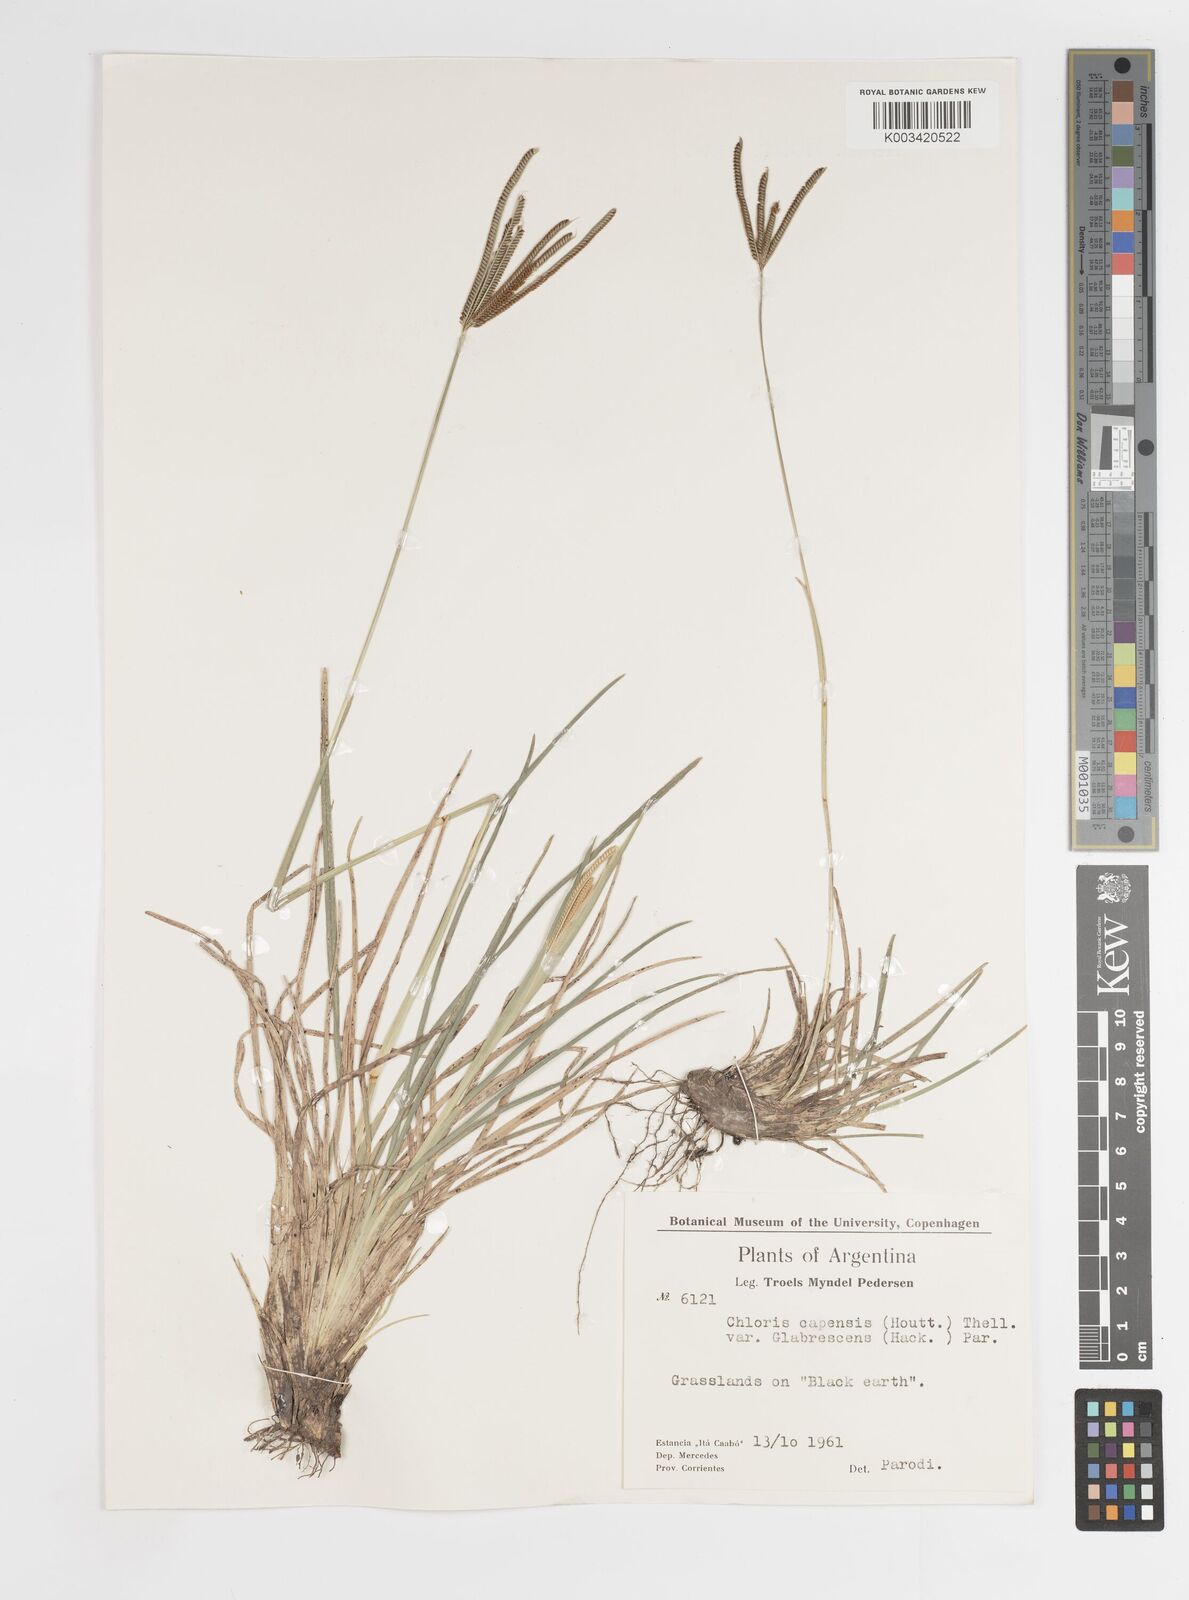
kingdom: Plantae
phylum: Tracheophyta
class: Liliopsida
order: Poales
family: Poaceae
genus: Eustachys
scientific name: Eustachys bahiensis
